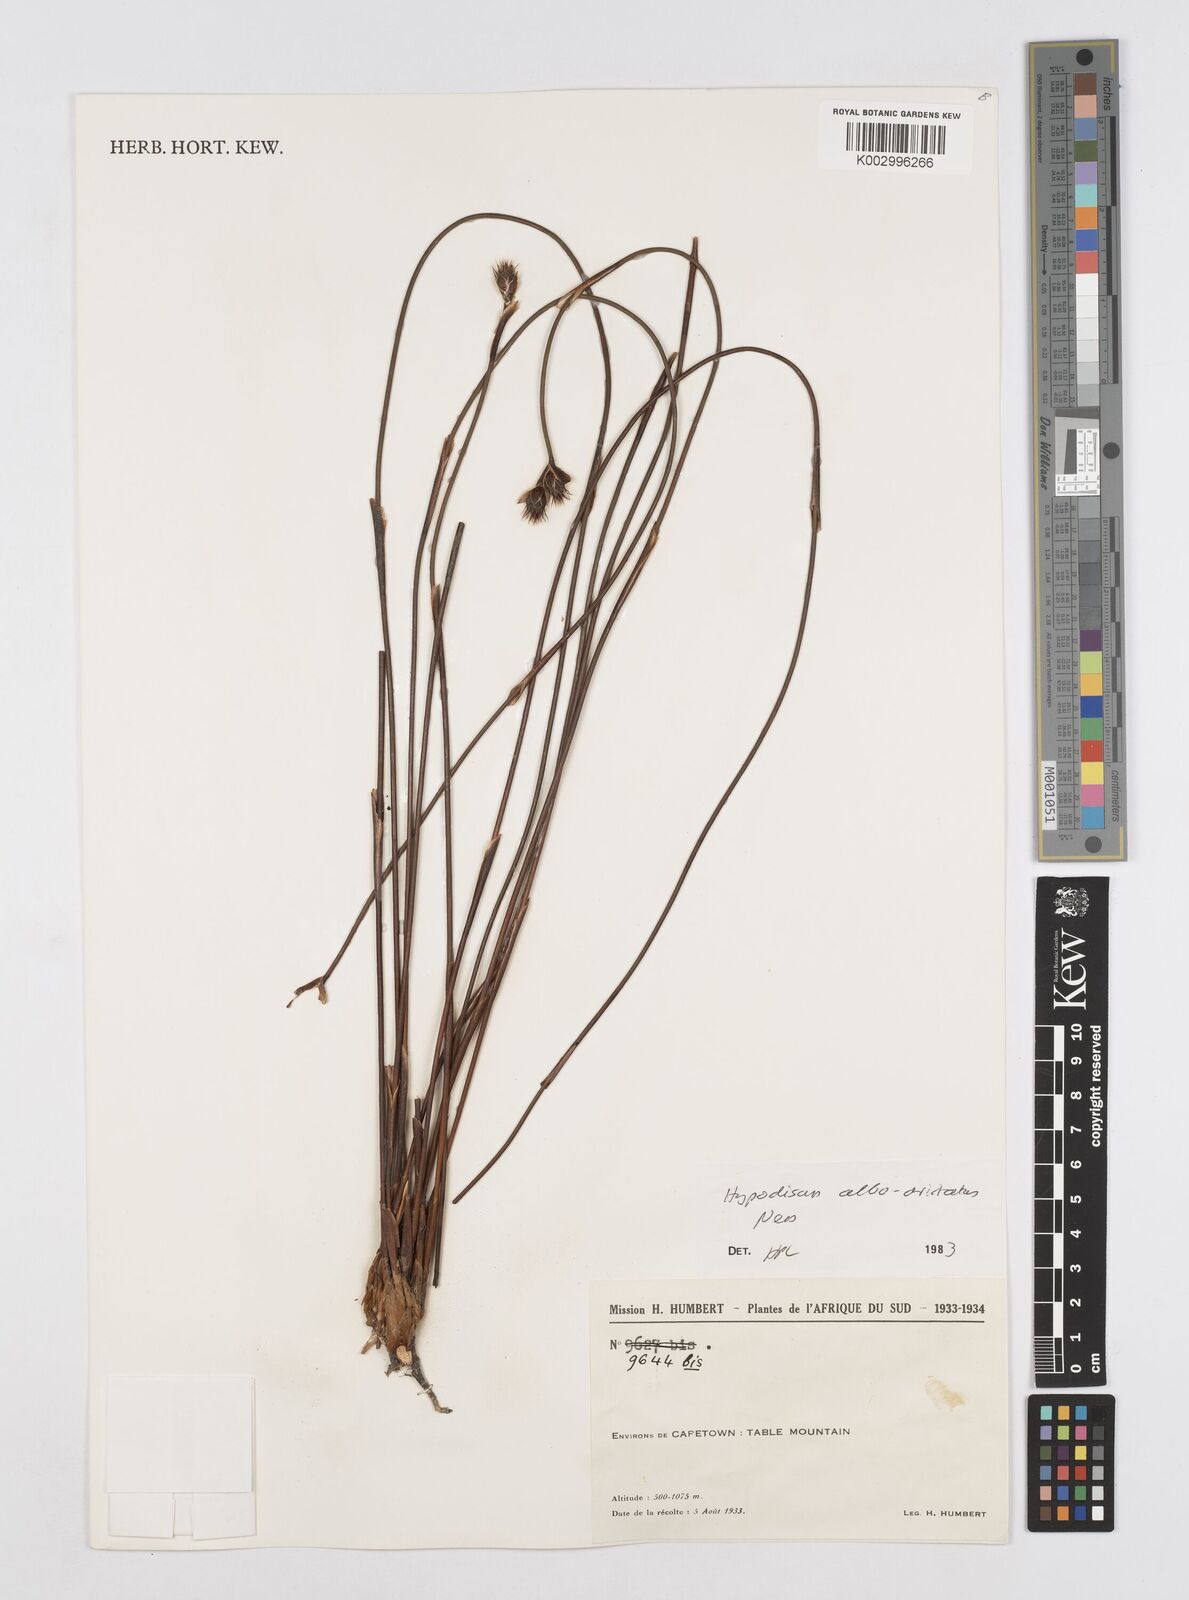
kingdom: Plantae
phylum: Tracheophyta
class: Liliopsida
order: Poales
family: Restionaceae
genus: Hypodiscus
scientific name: Hypodiscus alboaristatus
